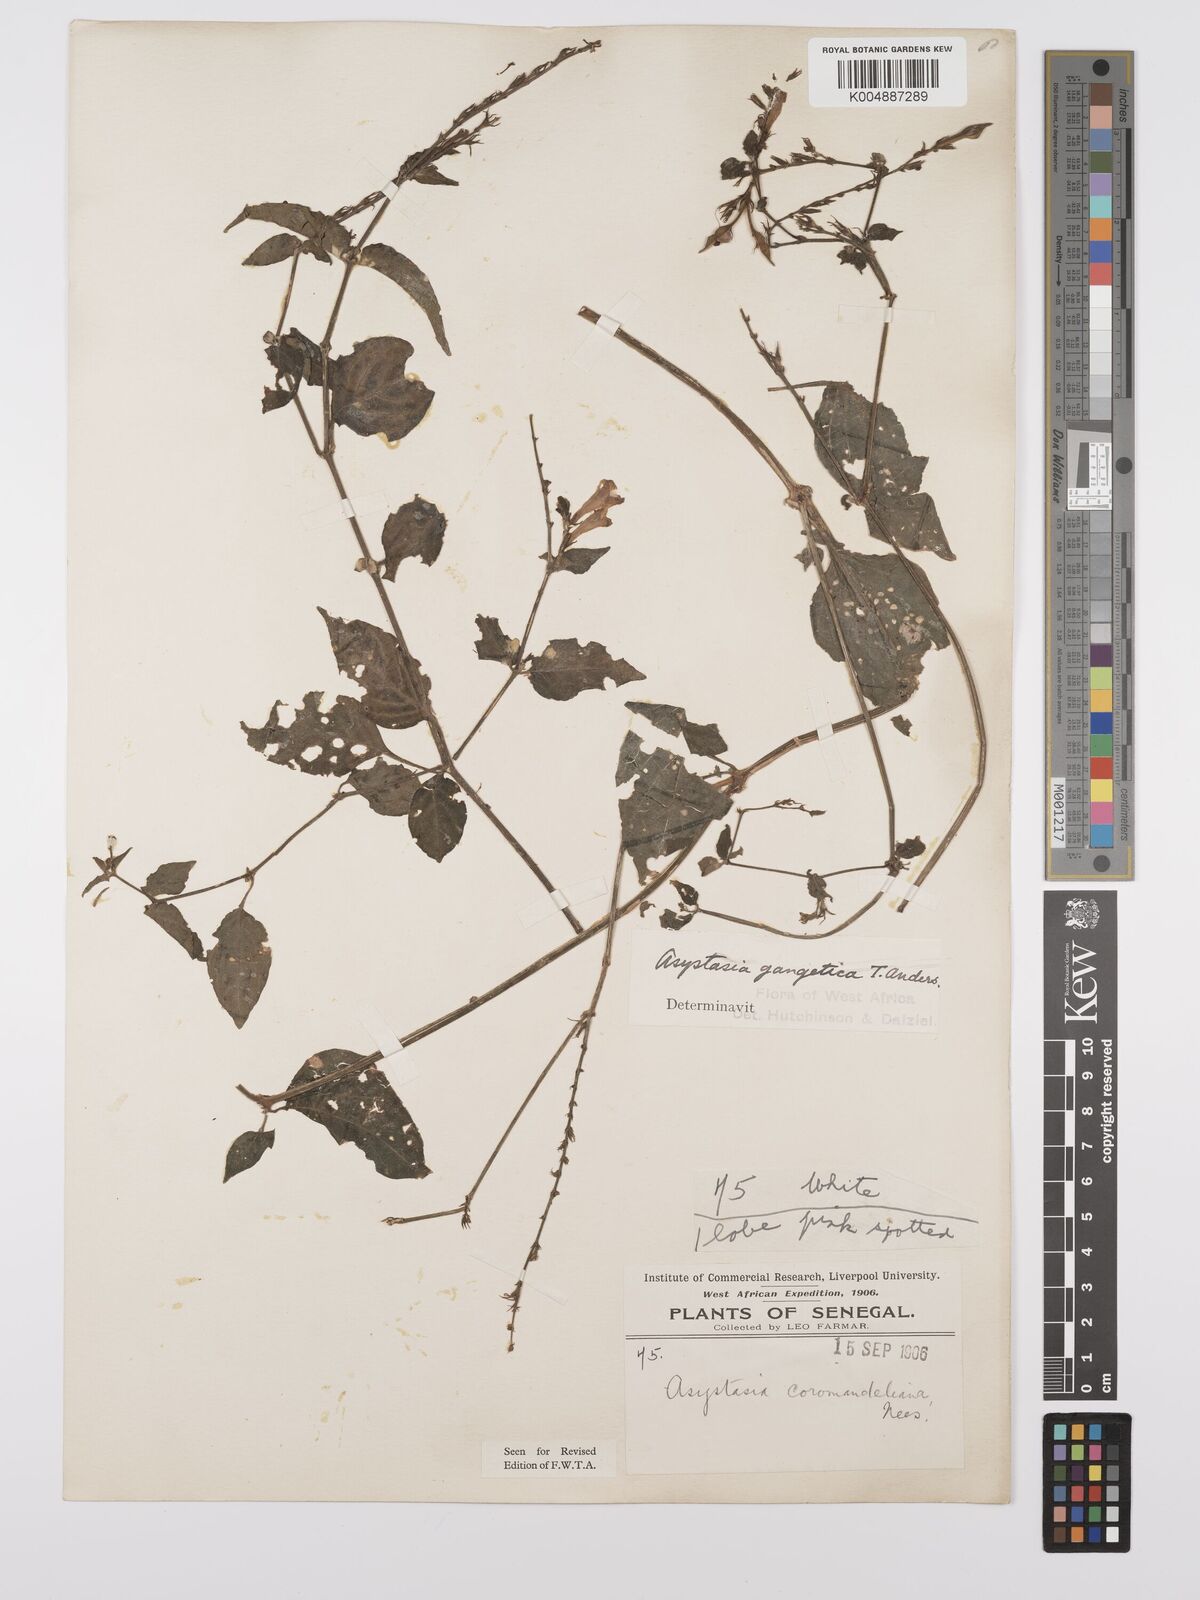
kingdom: Plantae
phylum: Tracheophyta
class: Magnoliopsida
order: Lamiales
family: Acanthaceae
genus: Asystasia
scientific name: Asystasia gangetica
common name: Chinese violet
